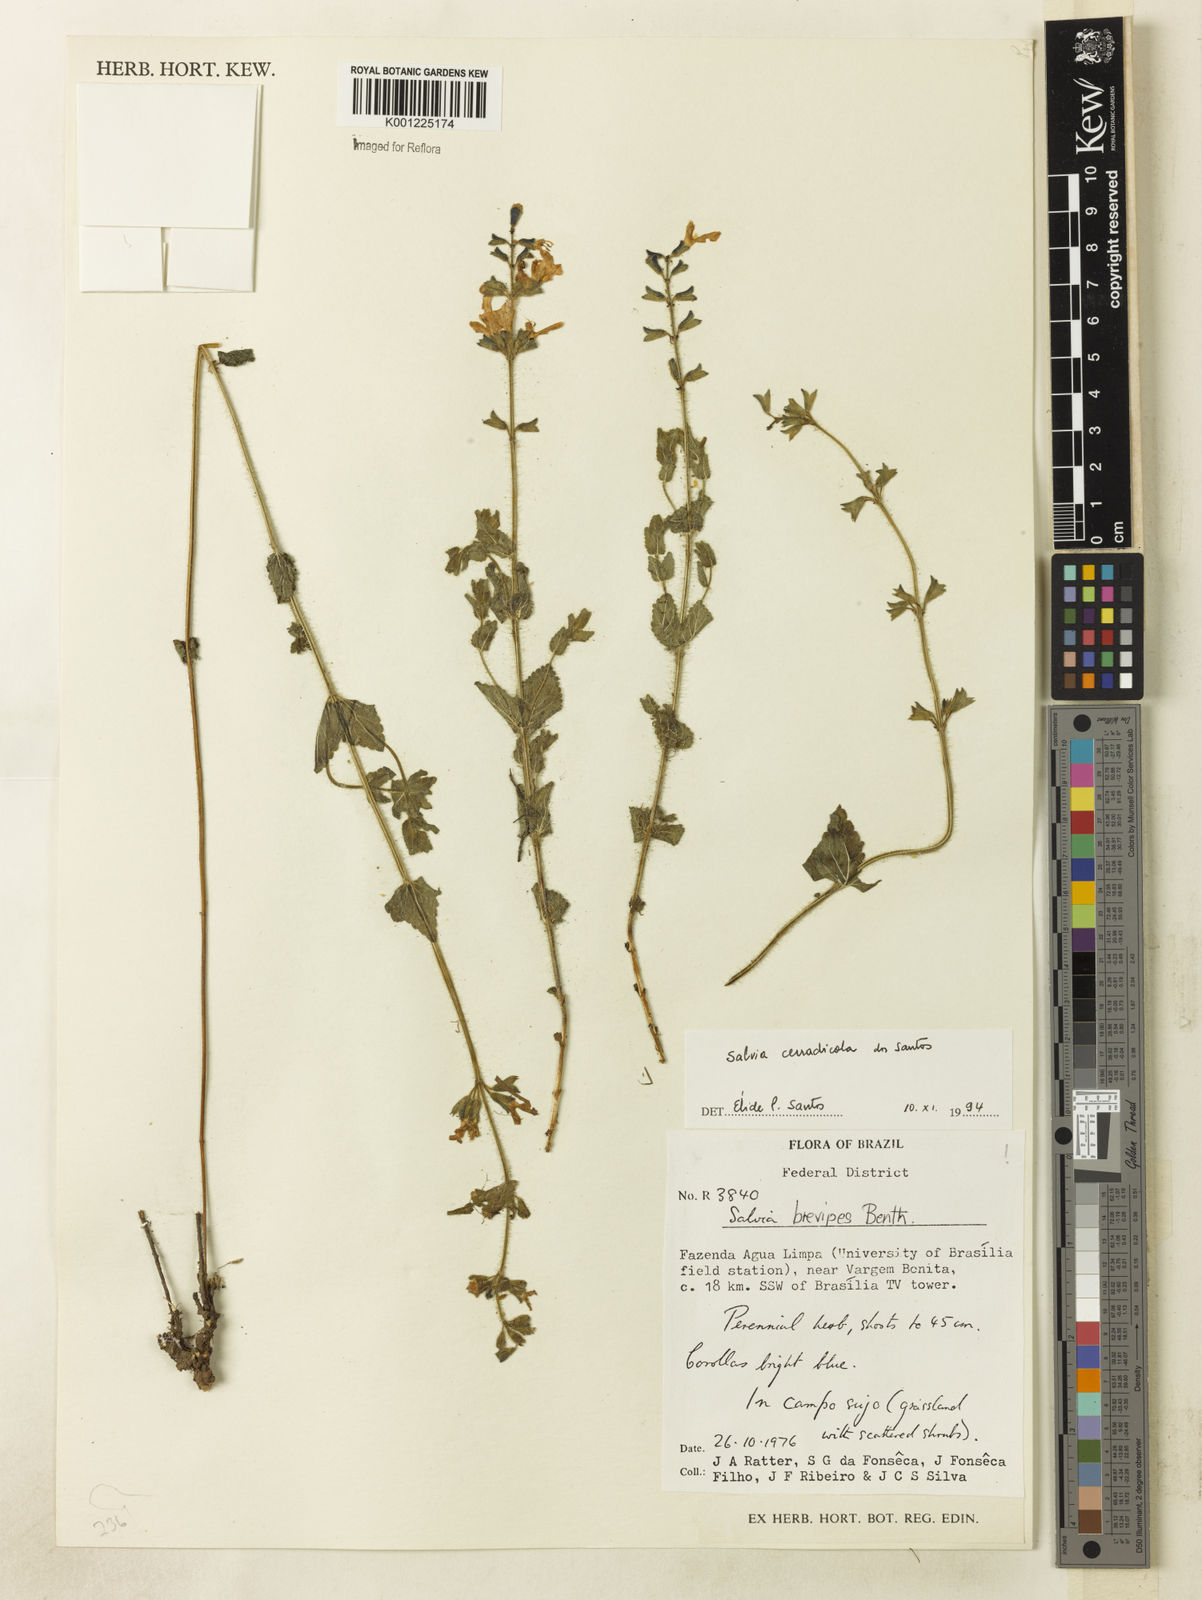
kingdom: Plantae
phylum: Tracheophyta
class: Magnoliopsida
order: Lamiales
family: Lamiaceae
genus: Salvia
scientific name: Salvia cerradicola
